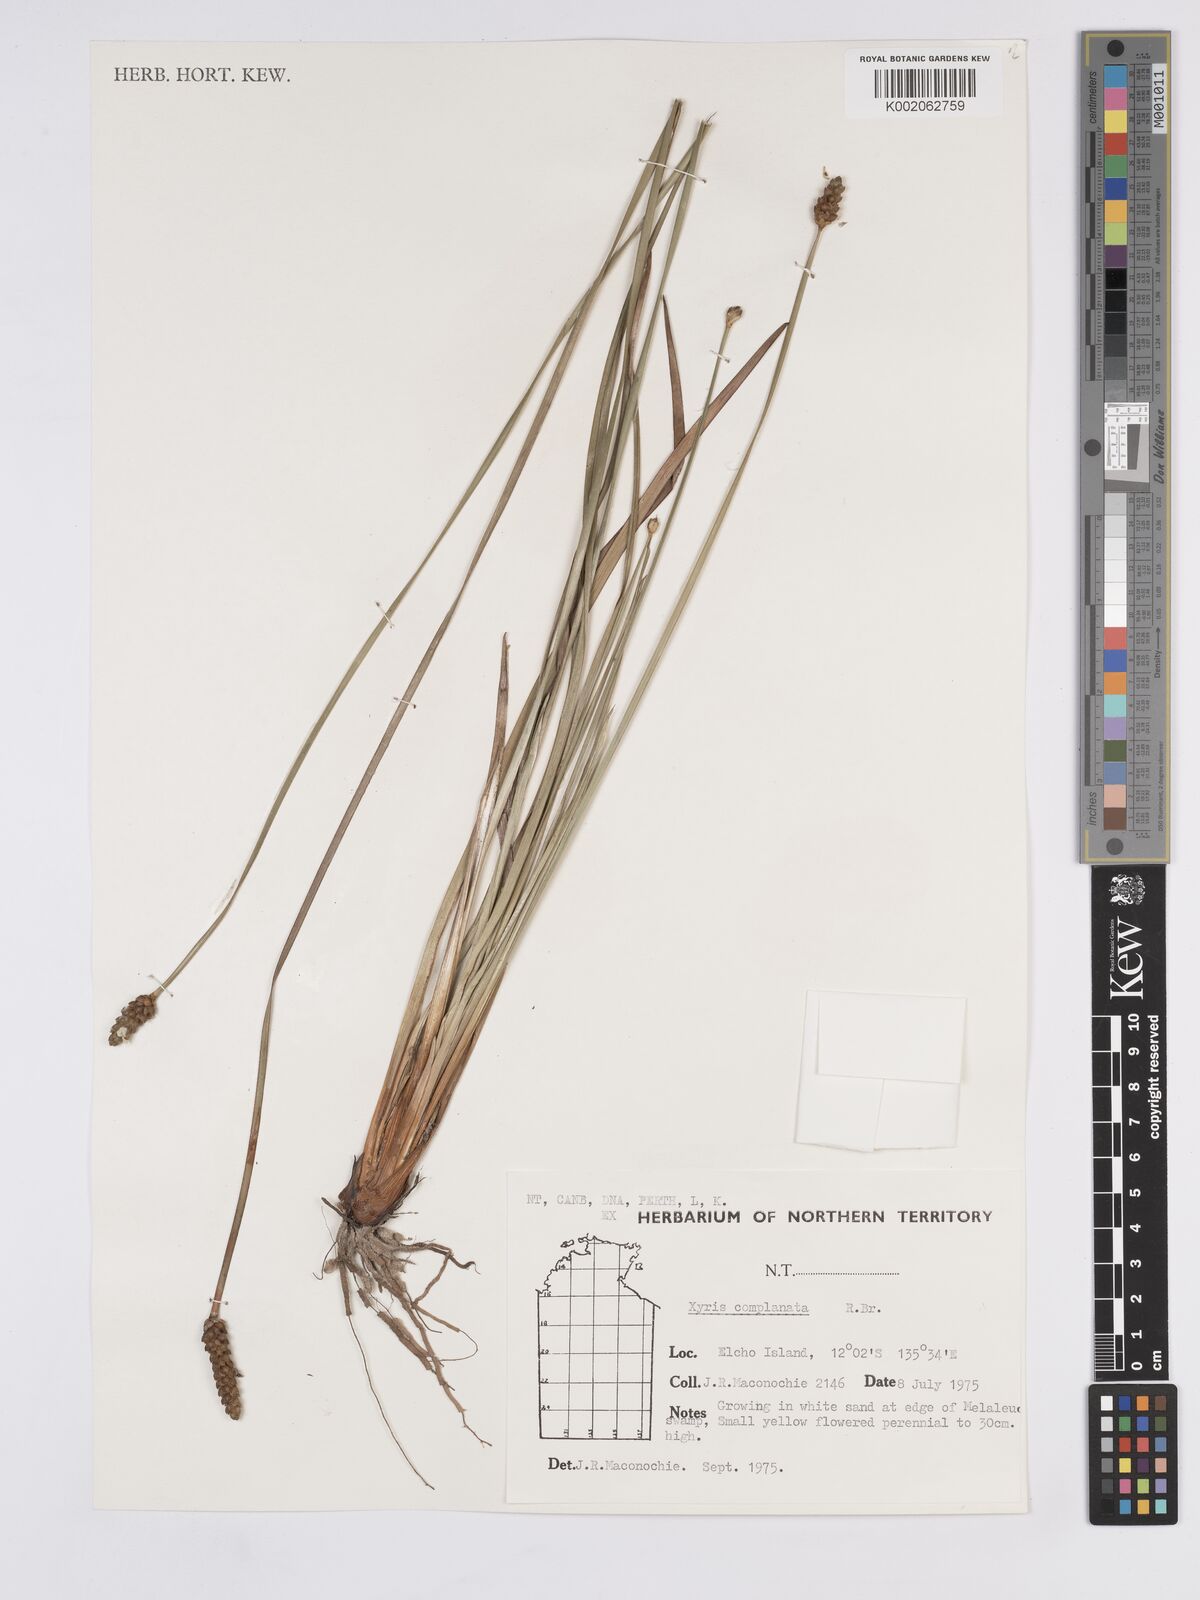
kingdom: Plantae
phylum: Tracheophyta
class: Liliopsida
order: Poales
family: Xyridaceae
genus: Xyris
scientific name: Xyris complanata
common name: Hawai'i yelloweyed grass
